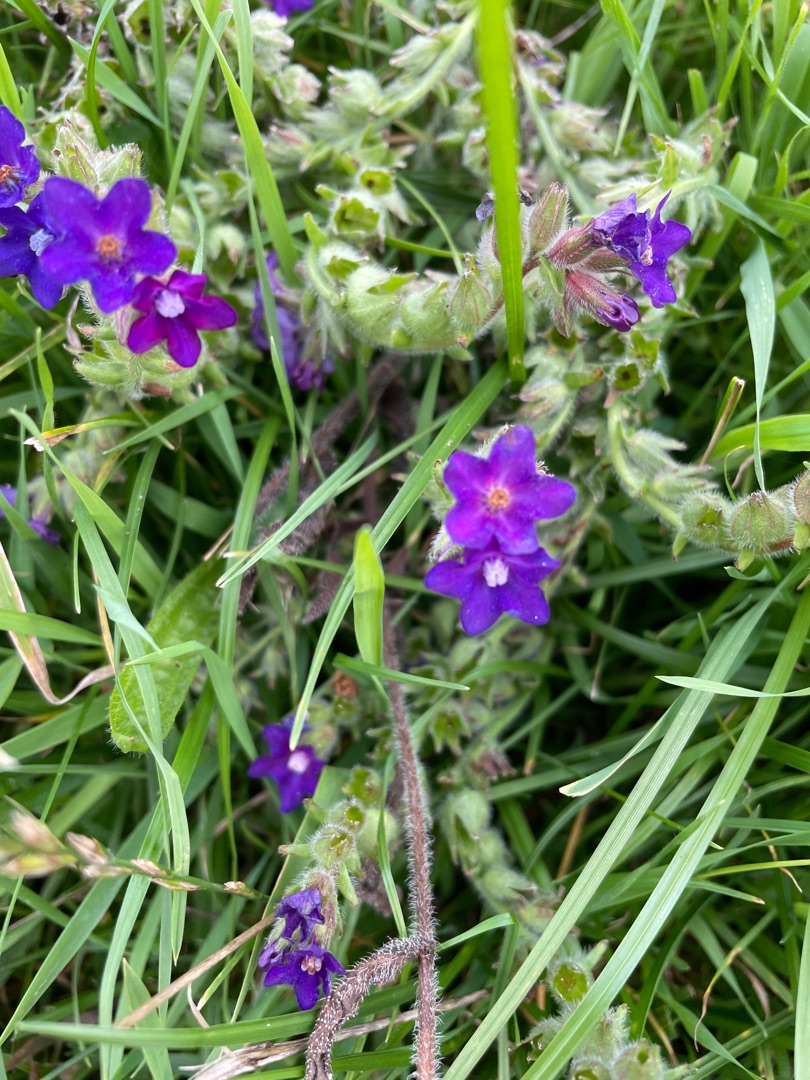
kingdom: Plantae
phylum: Tracheophyta
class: Magnoliopsida
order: Boraginales
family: Boraginaceae
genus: Anchusa
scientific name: Anchusa officinalis
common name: Læge-oksetunge
